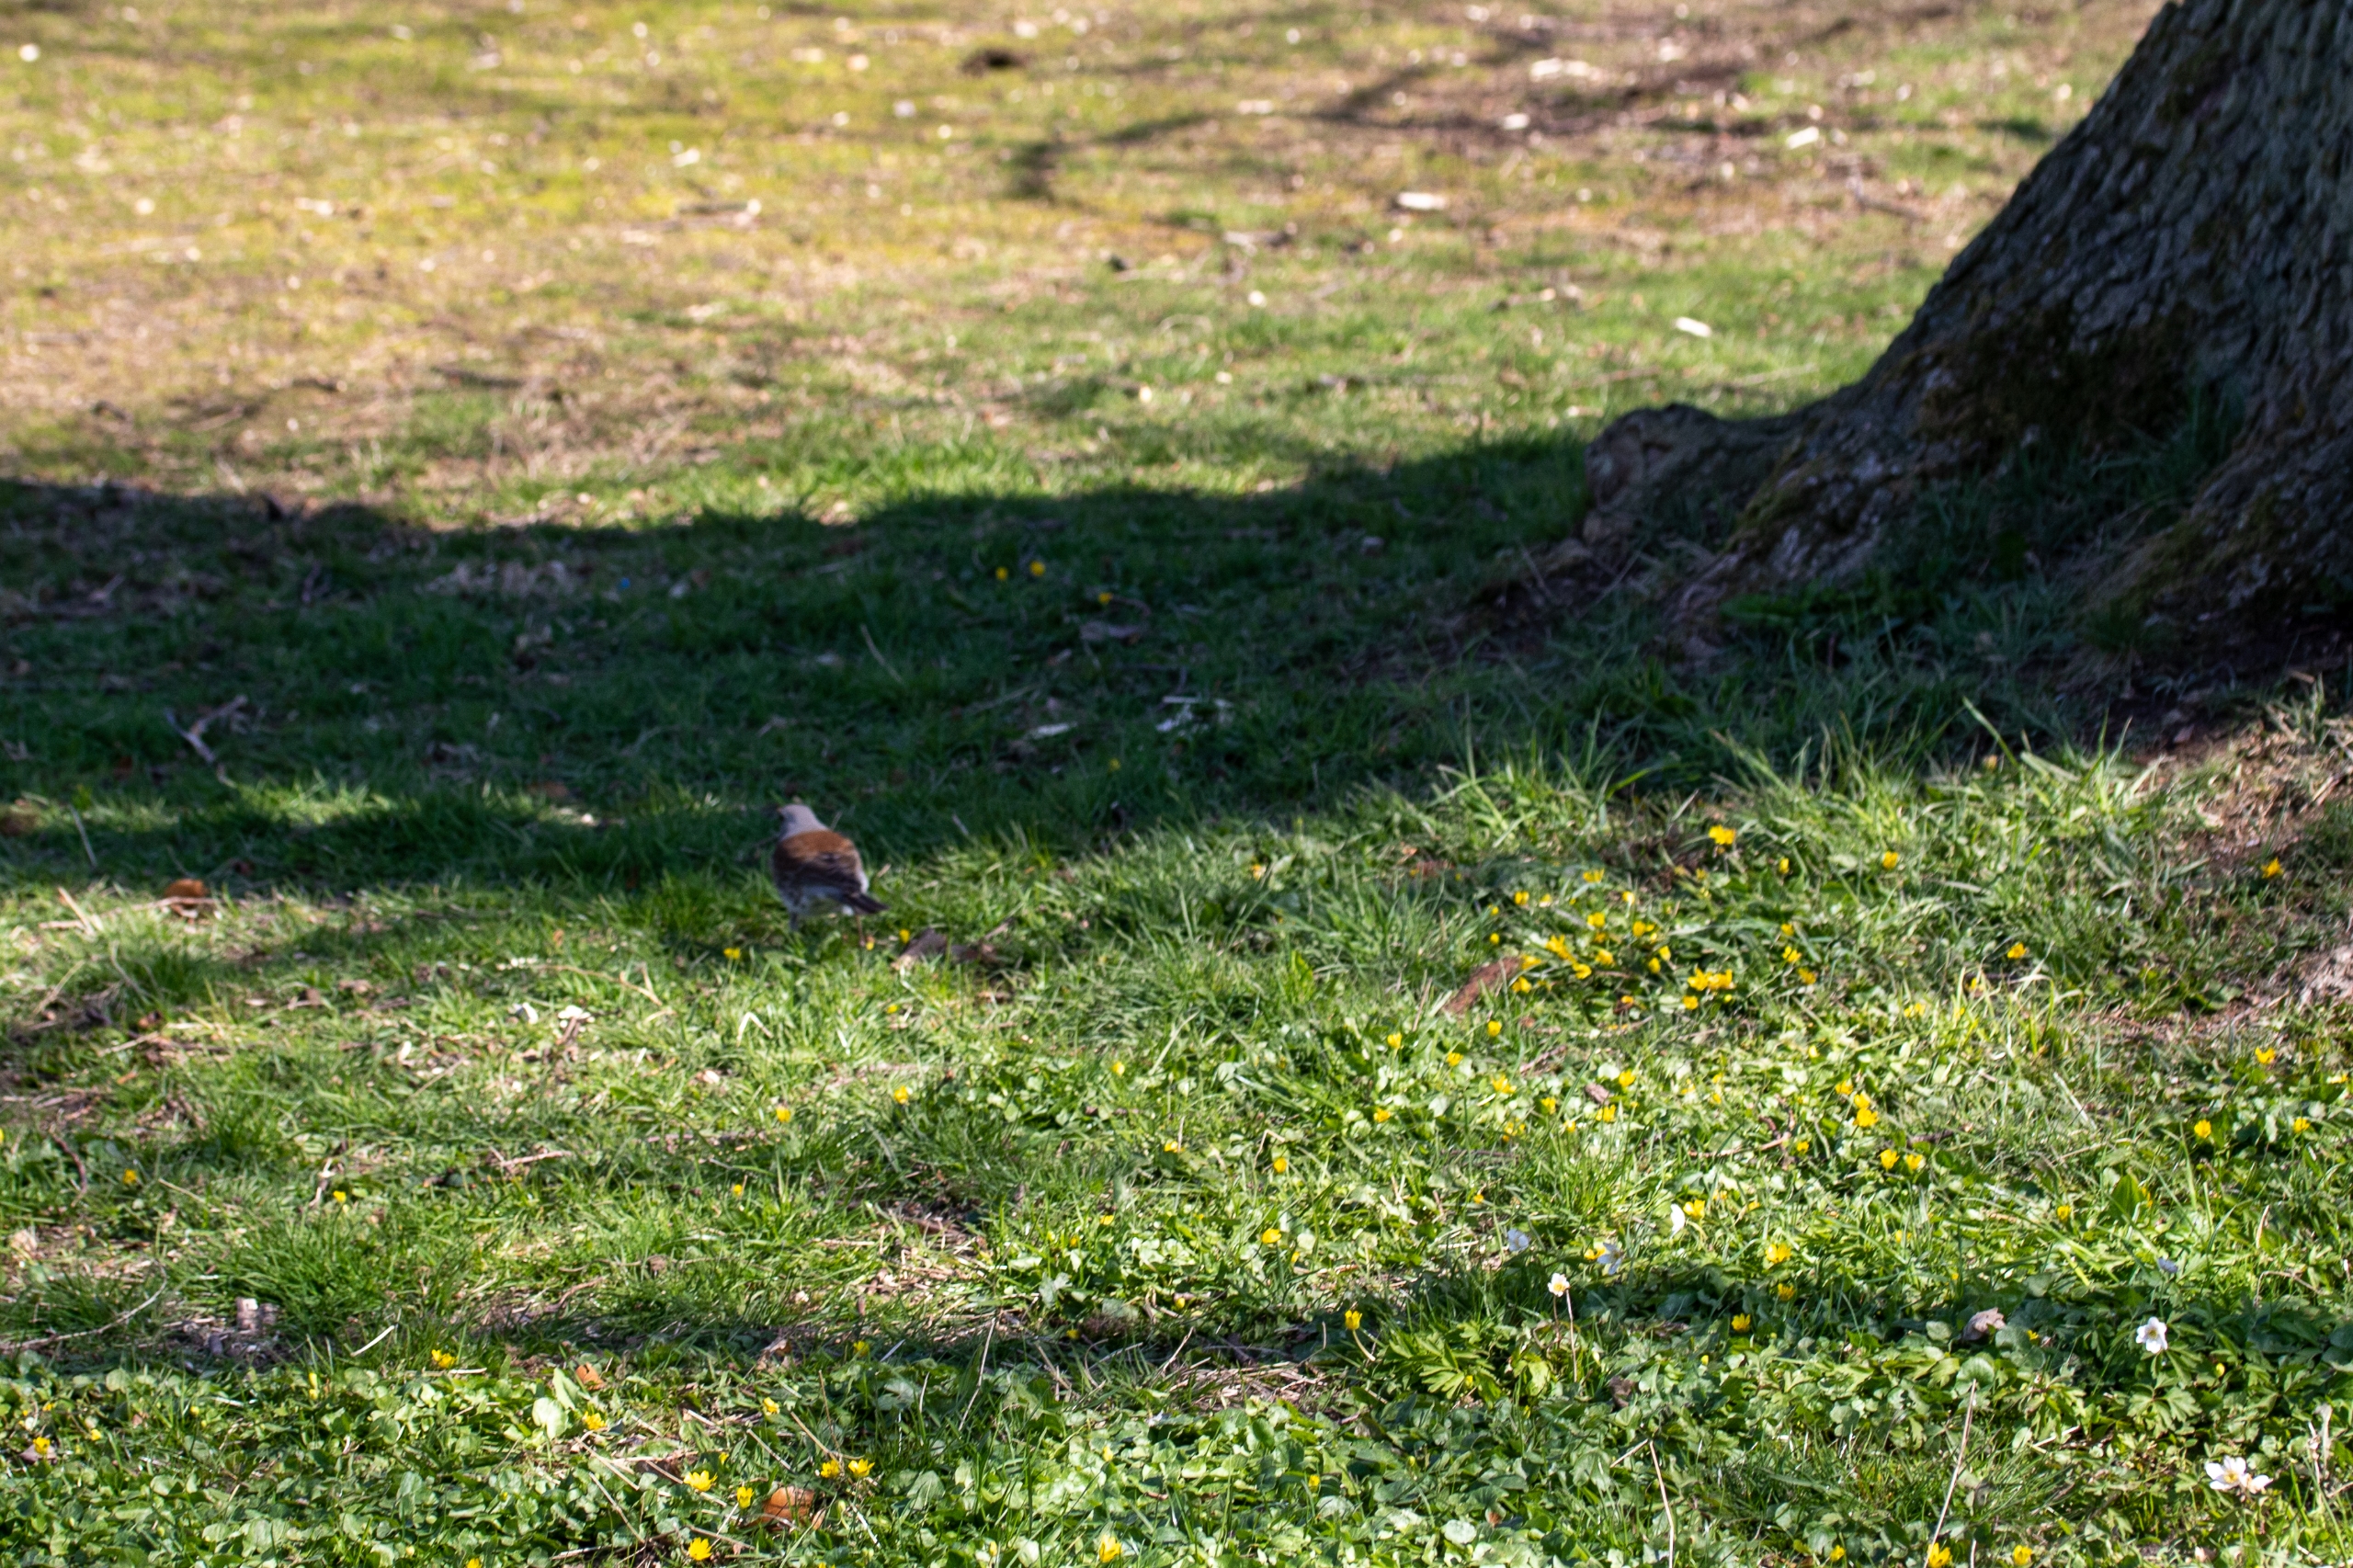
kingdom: Animalia
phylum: Chordata
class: Aves
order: Passeriformes
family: Turdidae
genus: Turdus
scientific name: Turdus pilaris
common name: Sjagger
